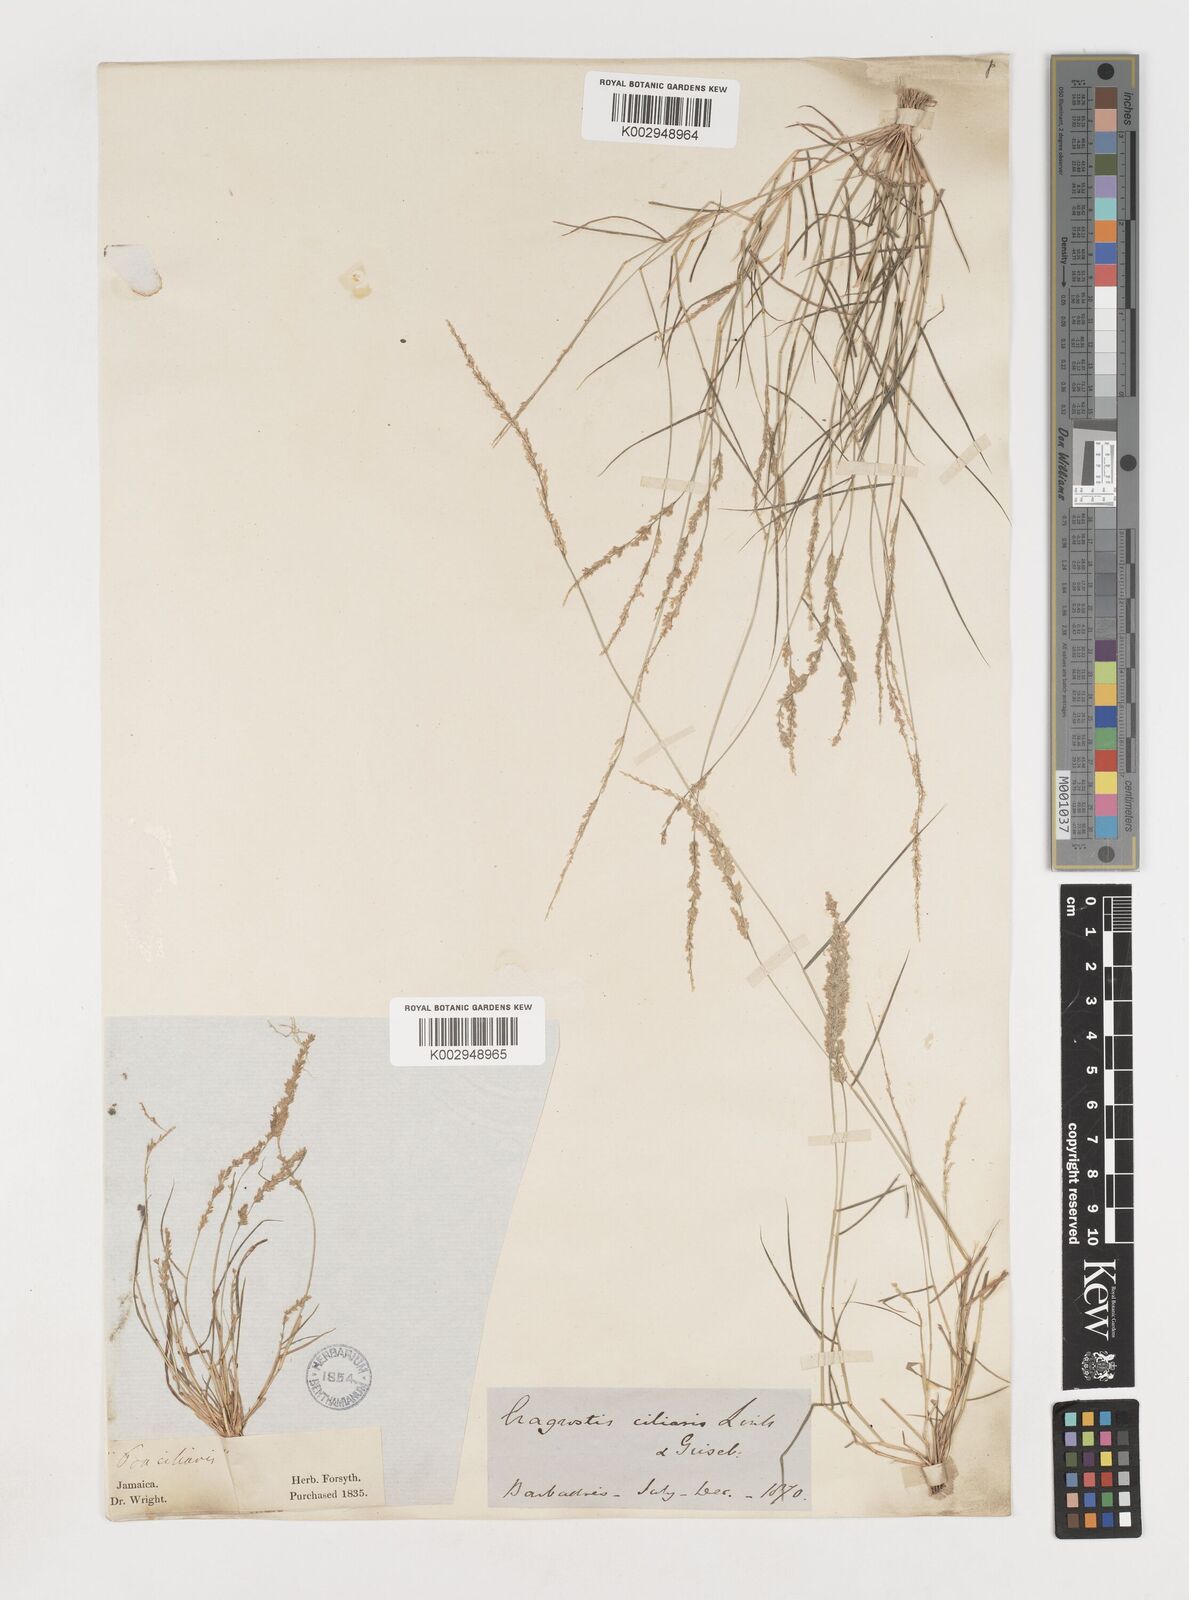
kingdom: Plantae
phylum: Tracheophyta
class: Liliopsida
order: Poales
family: Poaceae
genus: Eragrostis
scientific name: Eragrostis ciliaris
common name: Gophertail lovegrass
